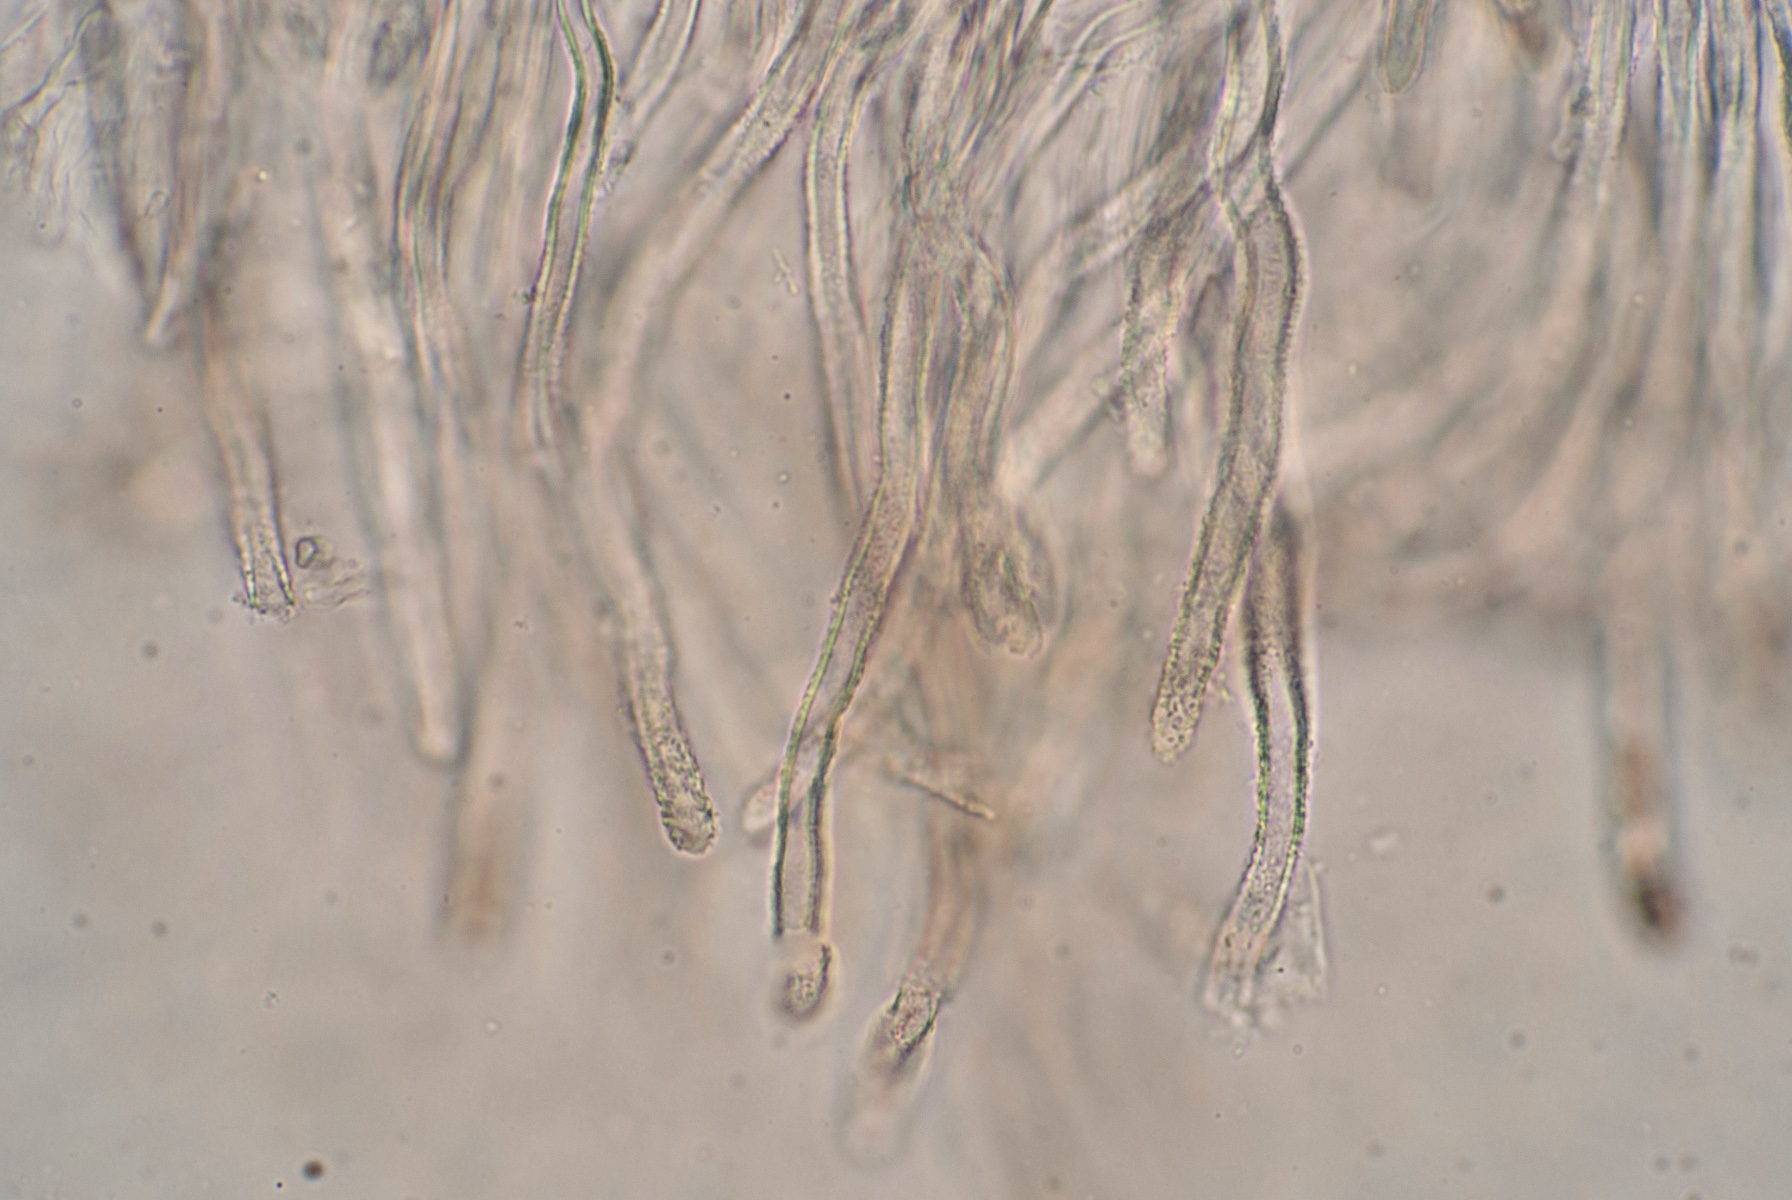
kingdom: Fungi
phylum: Basidiomycota
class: Agaricomycetes
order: Agaricales
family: Niaceae
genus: Lachnella
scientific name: Lachnella villosa
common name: hvid frynserede
